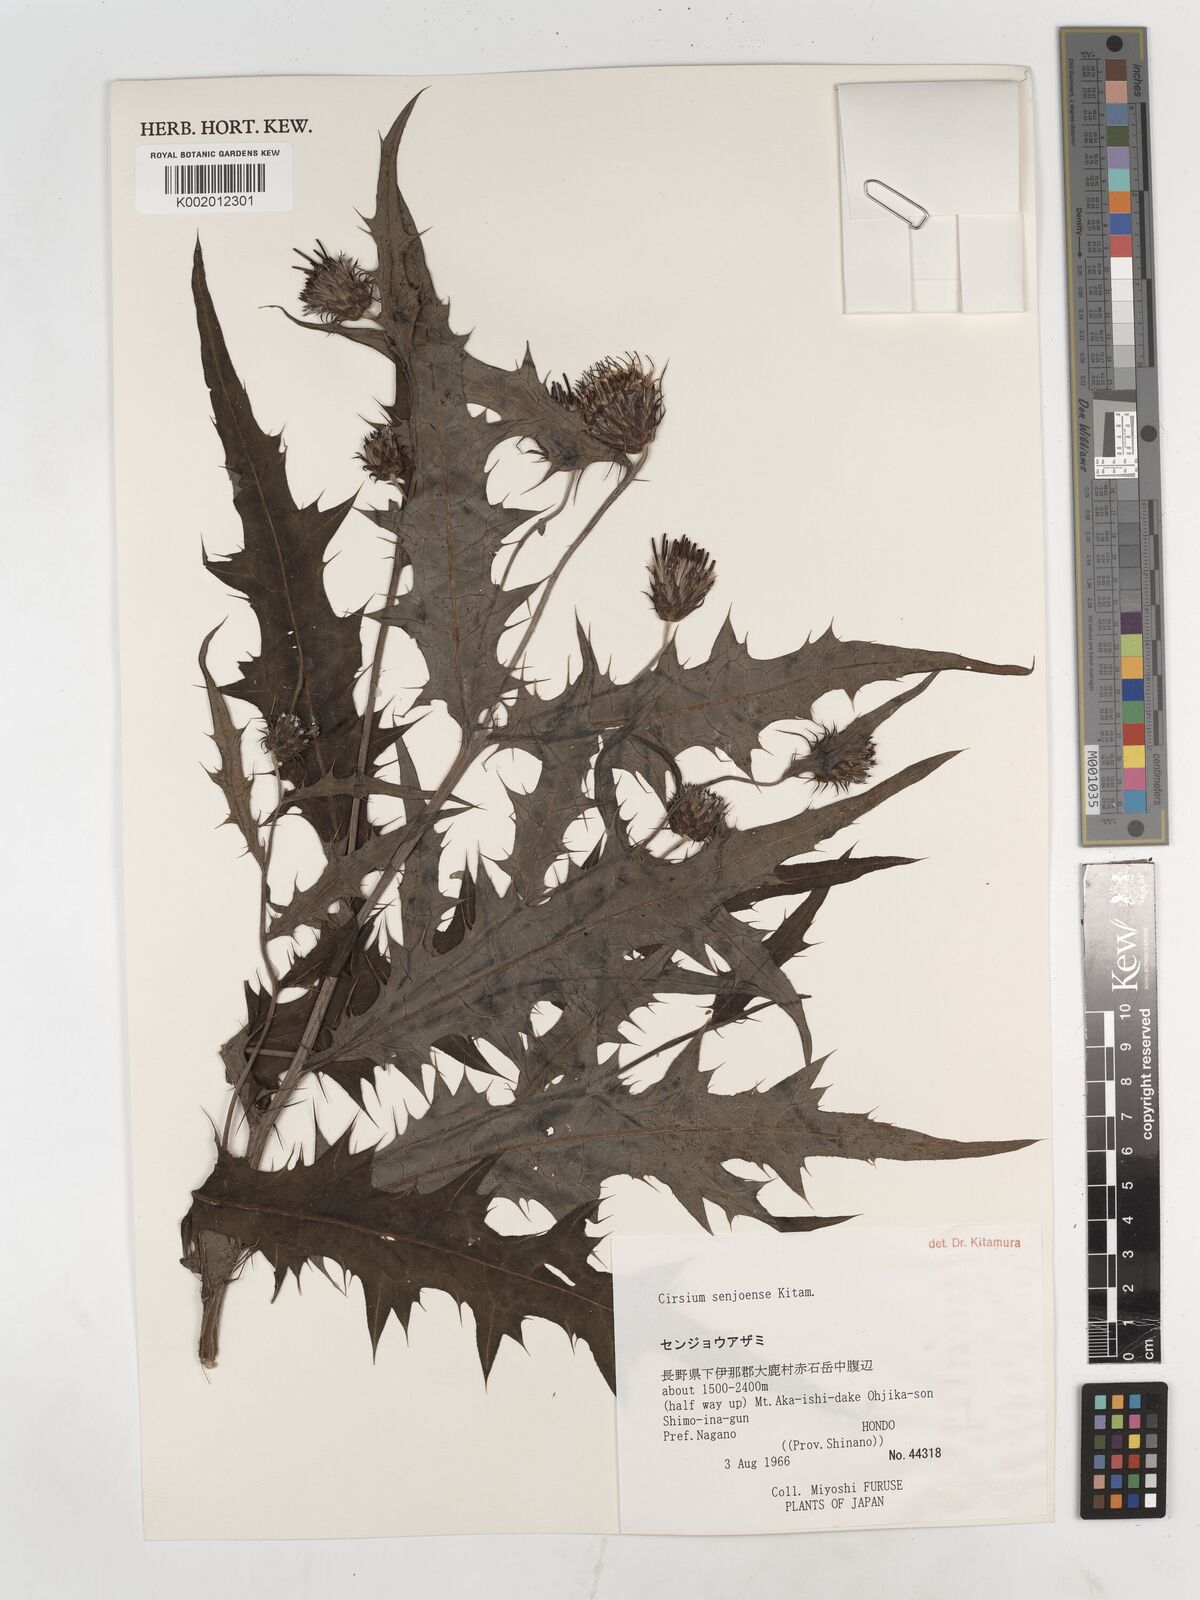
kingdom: Plantae
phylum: Tracheophyta
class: Magnoliopsida
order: Asterales
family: Asteraceae
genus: Cirsium
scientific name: Cirsium senjoense
